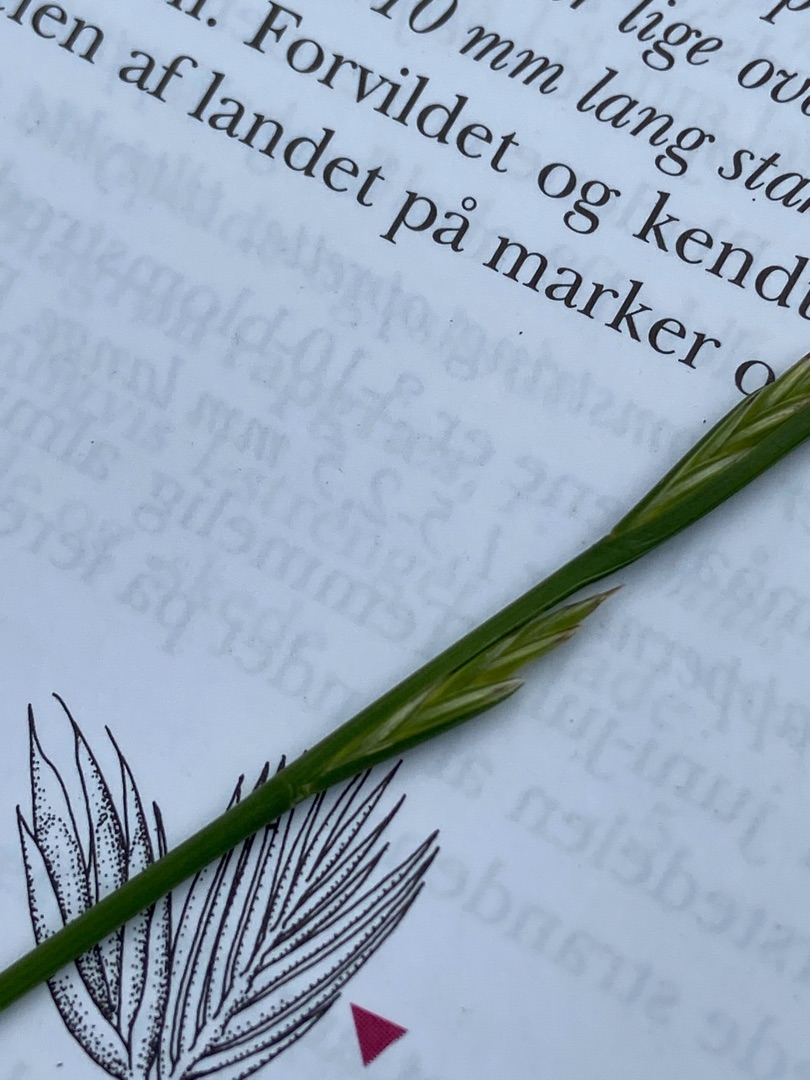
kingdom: Plantae
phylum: Tracheophyta
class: Liliopsida
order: Poales
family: Poaceae
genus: Lolium
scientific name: Lolium perenne
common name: Almindelig rajgræs
